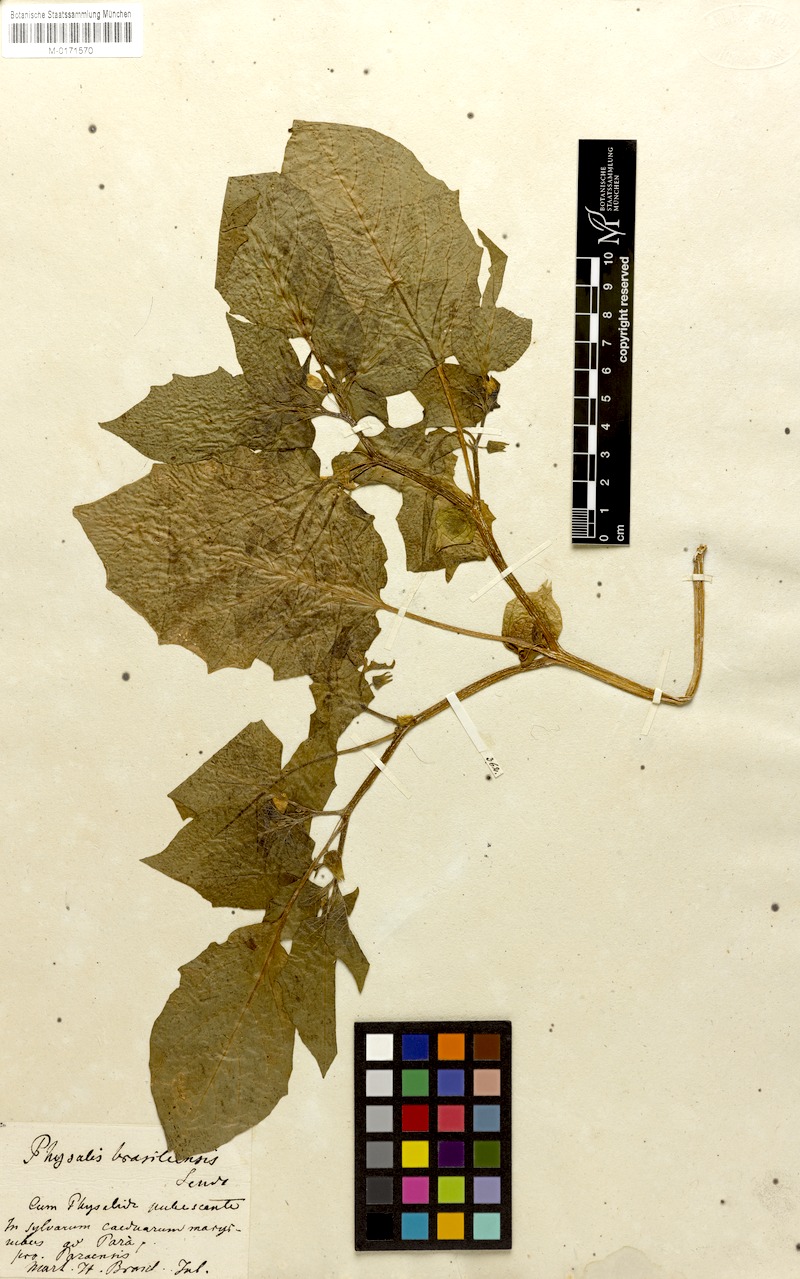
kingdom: Plantae
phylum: Tracheophyta
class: Magnoliopsida
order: Solanales
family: Solanaceae
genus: Physalis
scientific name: Physalis pubescens
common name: Downy ground-cherry
